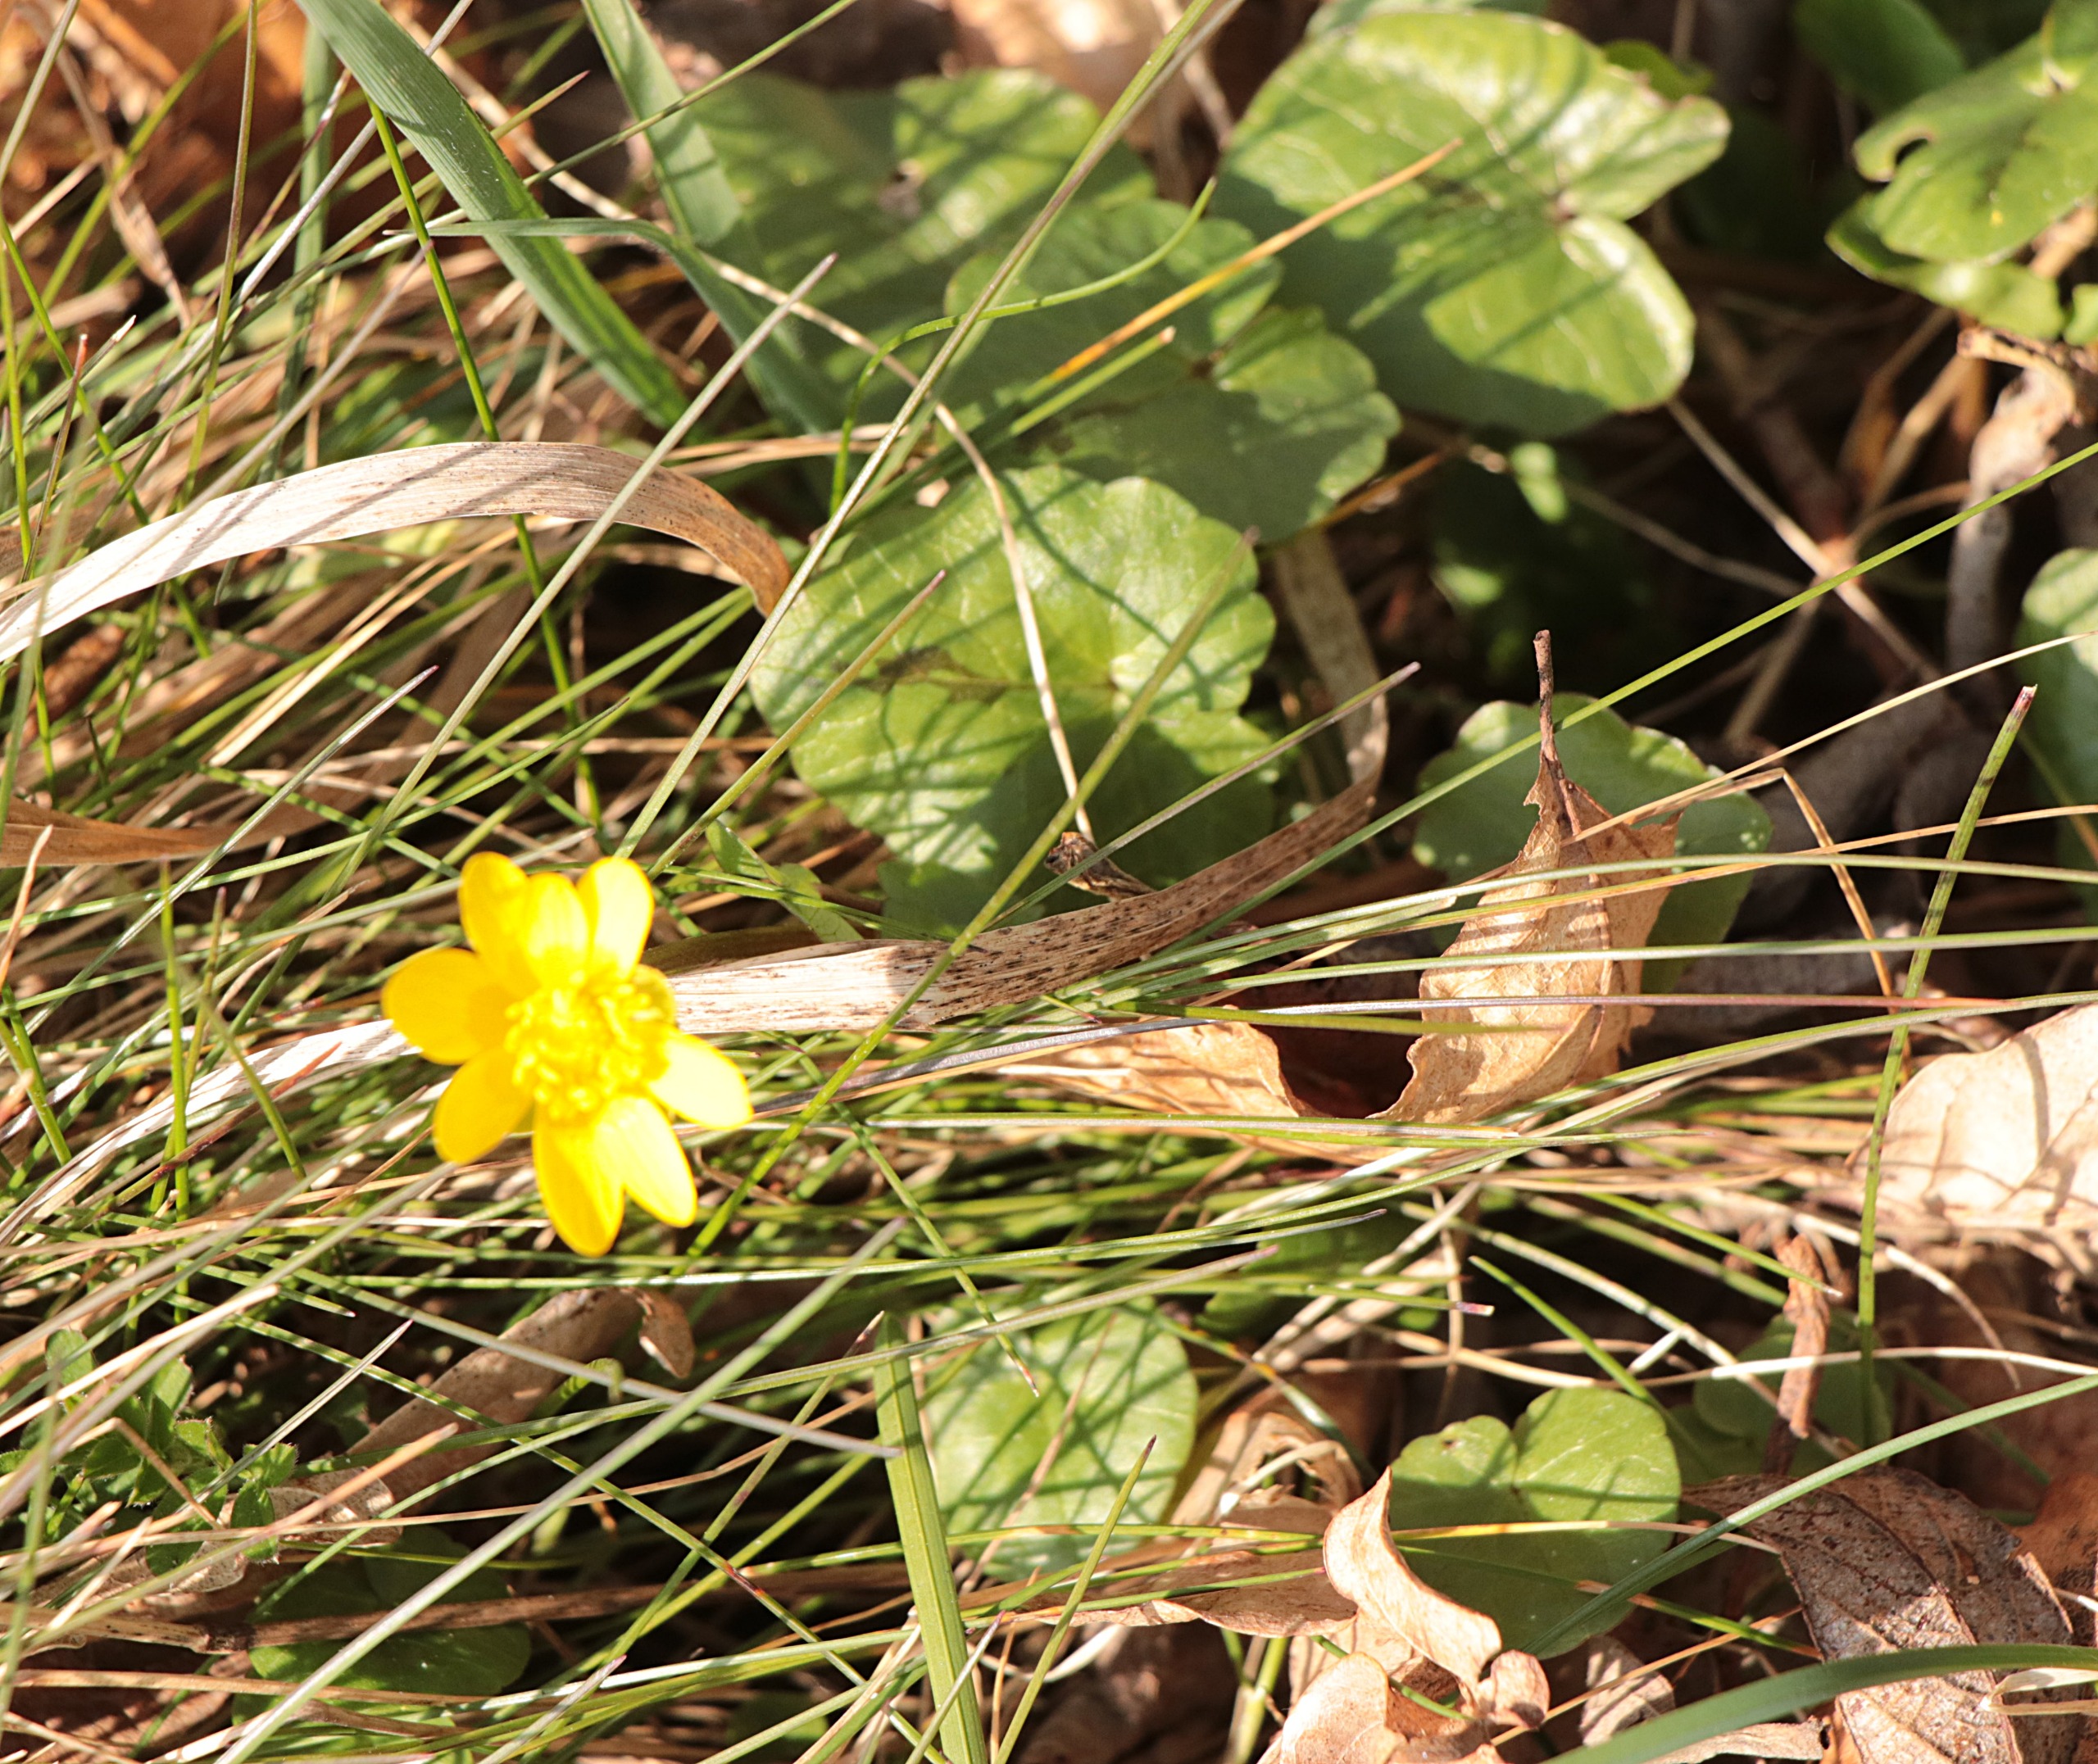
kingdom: Plantae
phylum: Tracheophyta
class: Magnoliopsida
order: Ranunculales
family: Ranunculaceae
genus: Ficaria
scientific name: Ficaria verna
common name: Vorterod
